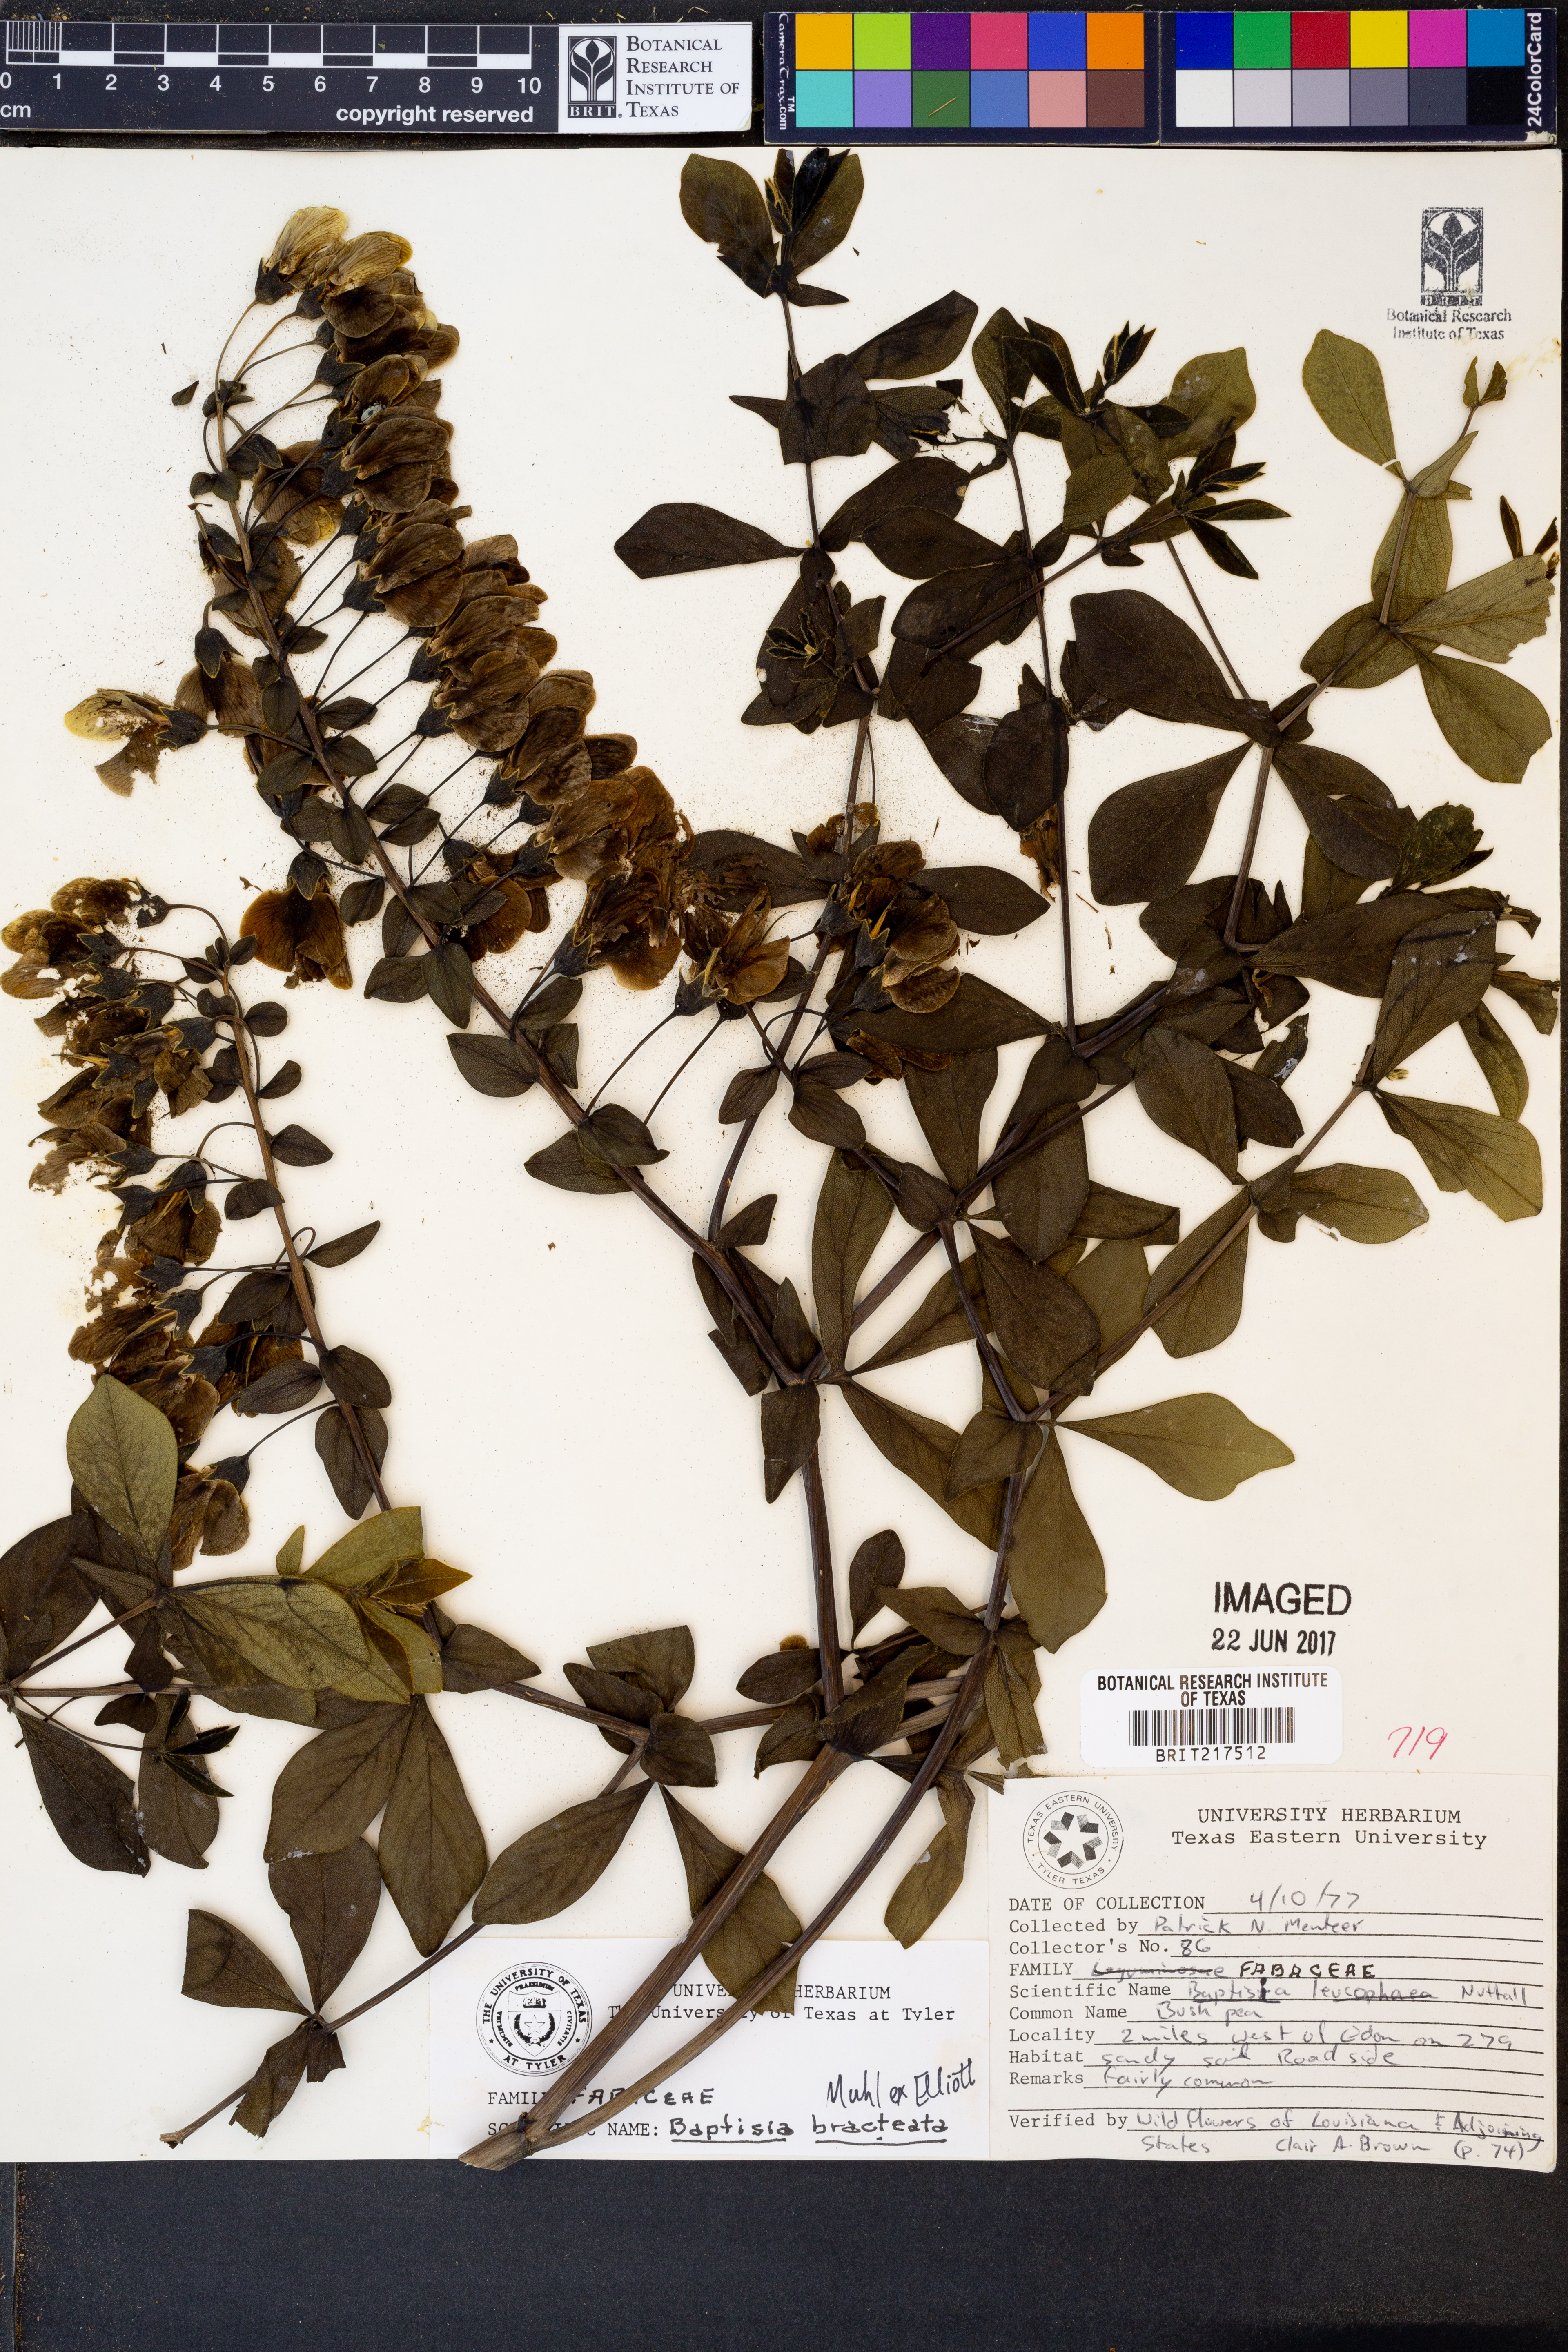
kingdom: Plantae
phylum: Tracheophyta
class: Magnoliopsida
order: Fabales
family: Fabaceae
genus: Baptisia
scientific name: Baptisia bracteata
